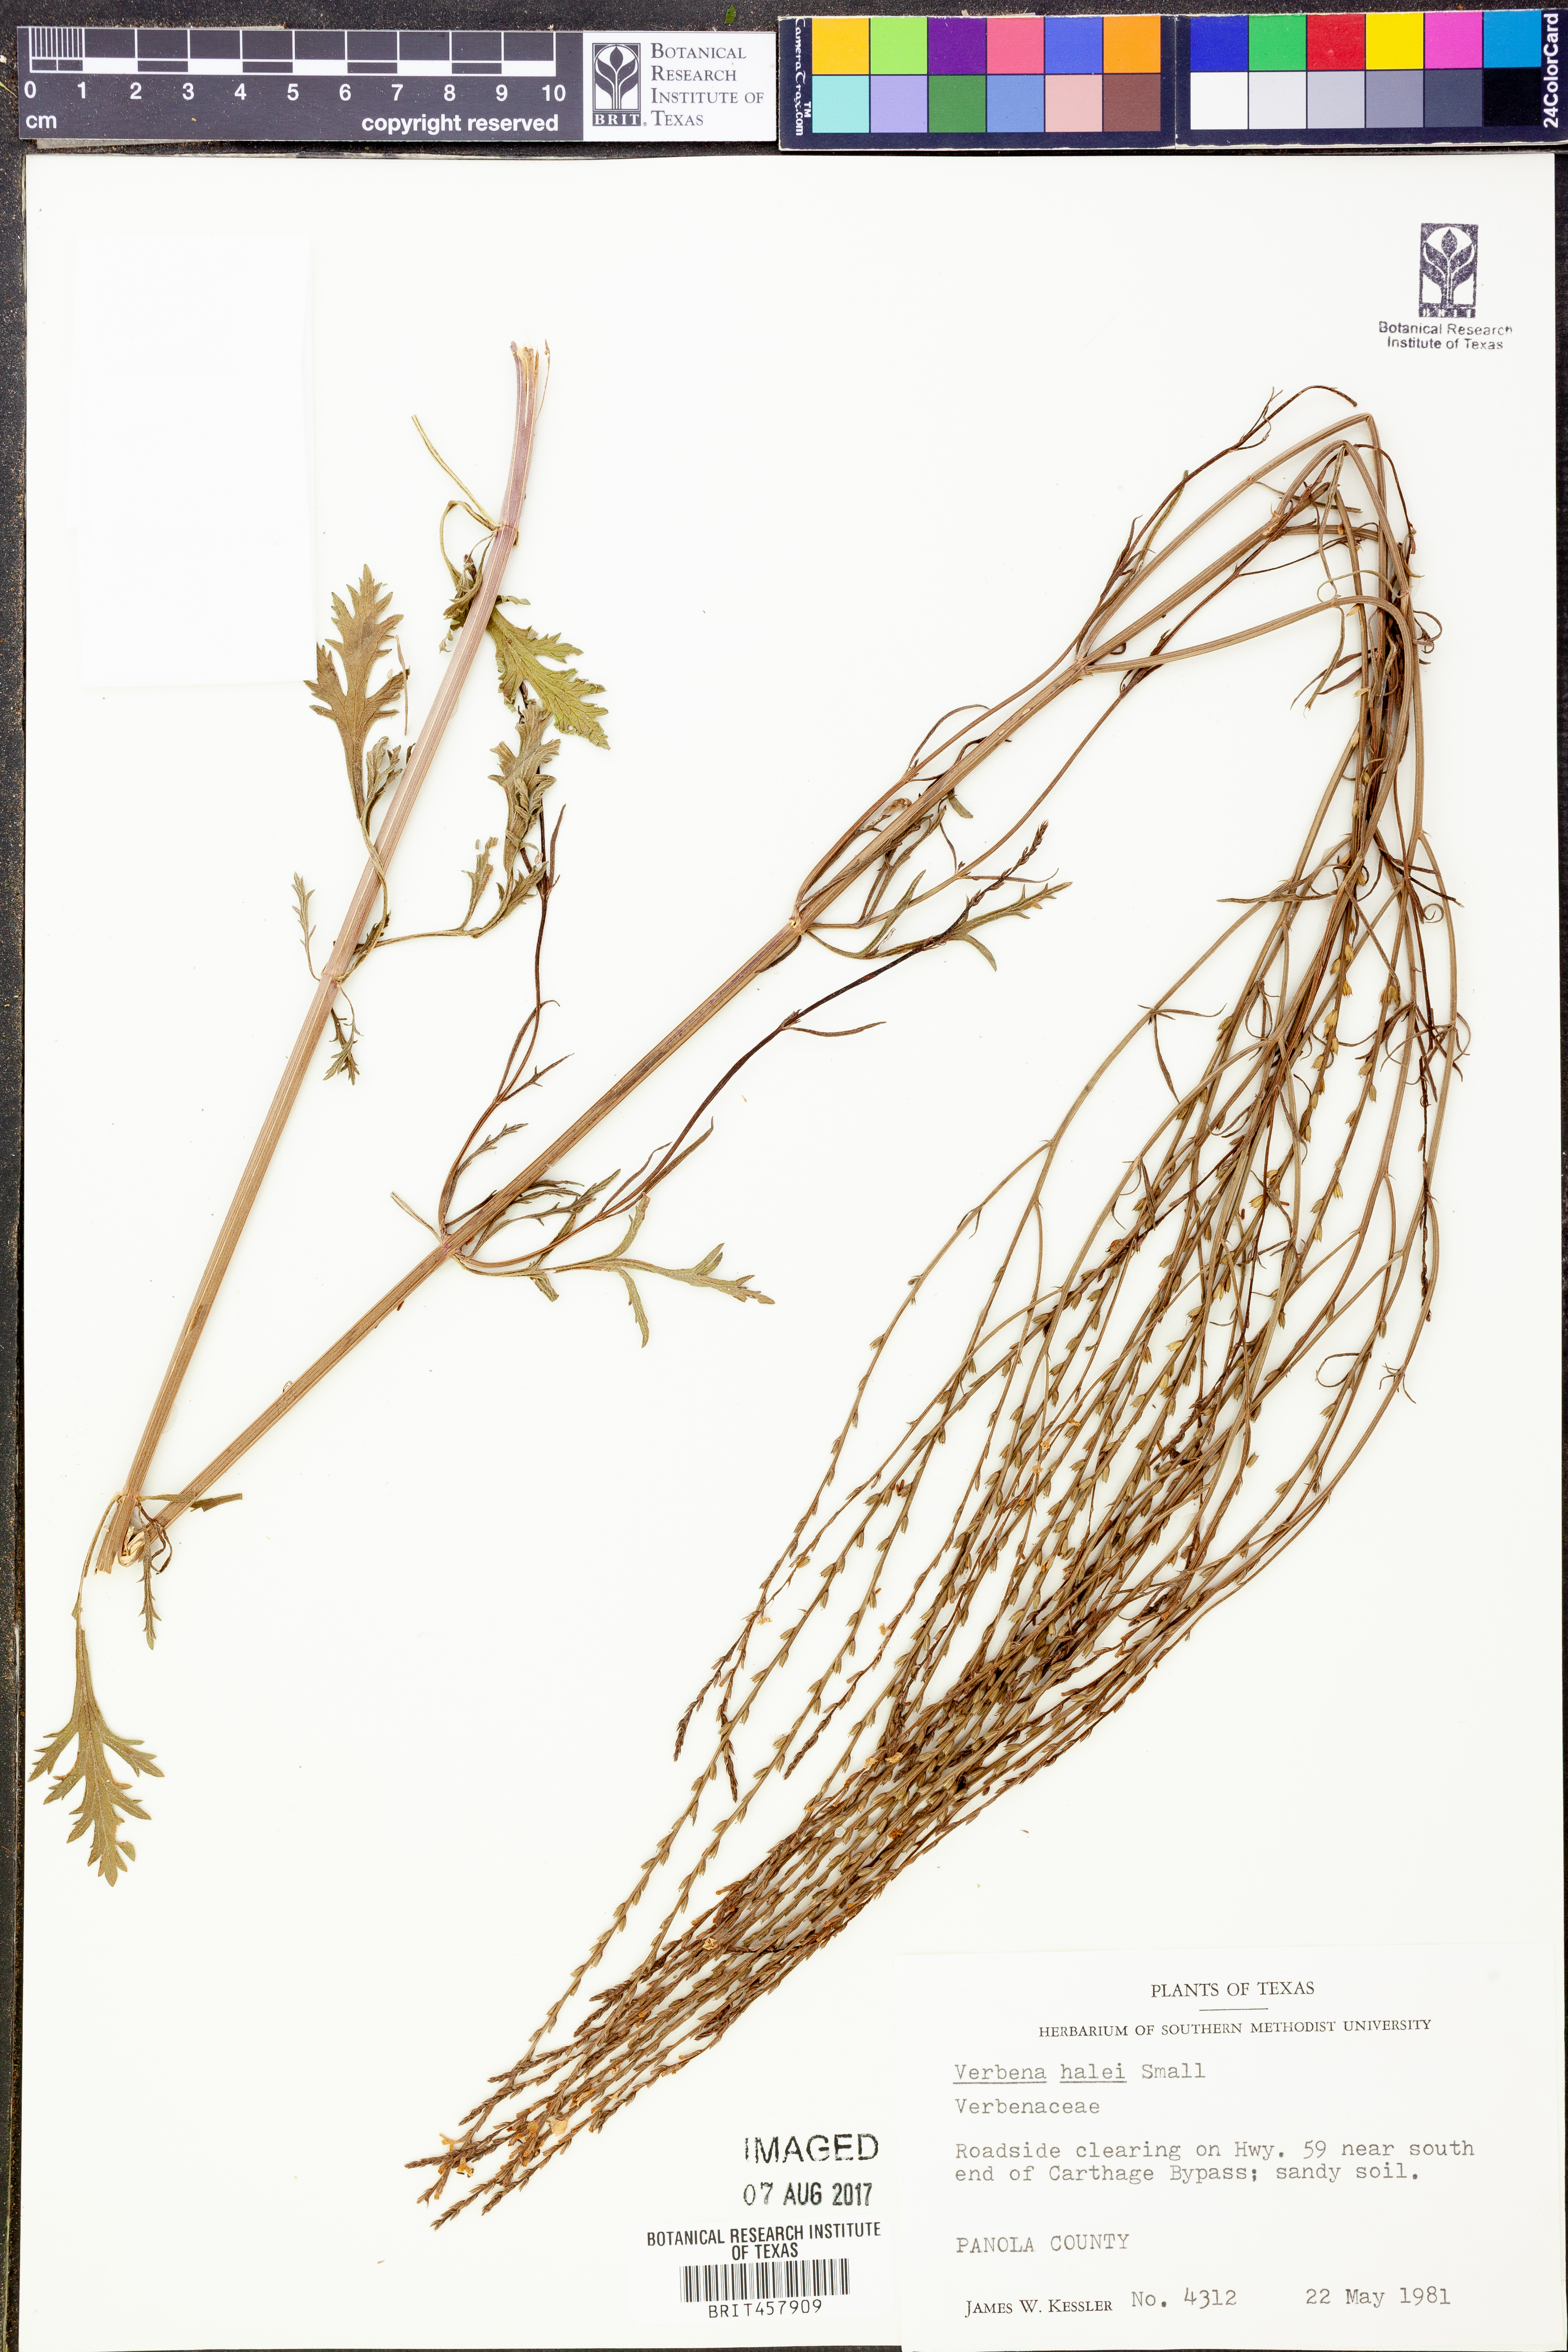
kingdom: Plantae
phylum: Tracheophyta
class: Magnoliopsida
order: Lamiales
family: Verbenaceae
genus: Verbena
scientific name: Verbena halei
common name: Texas vervain
